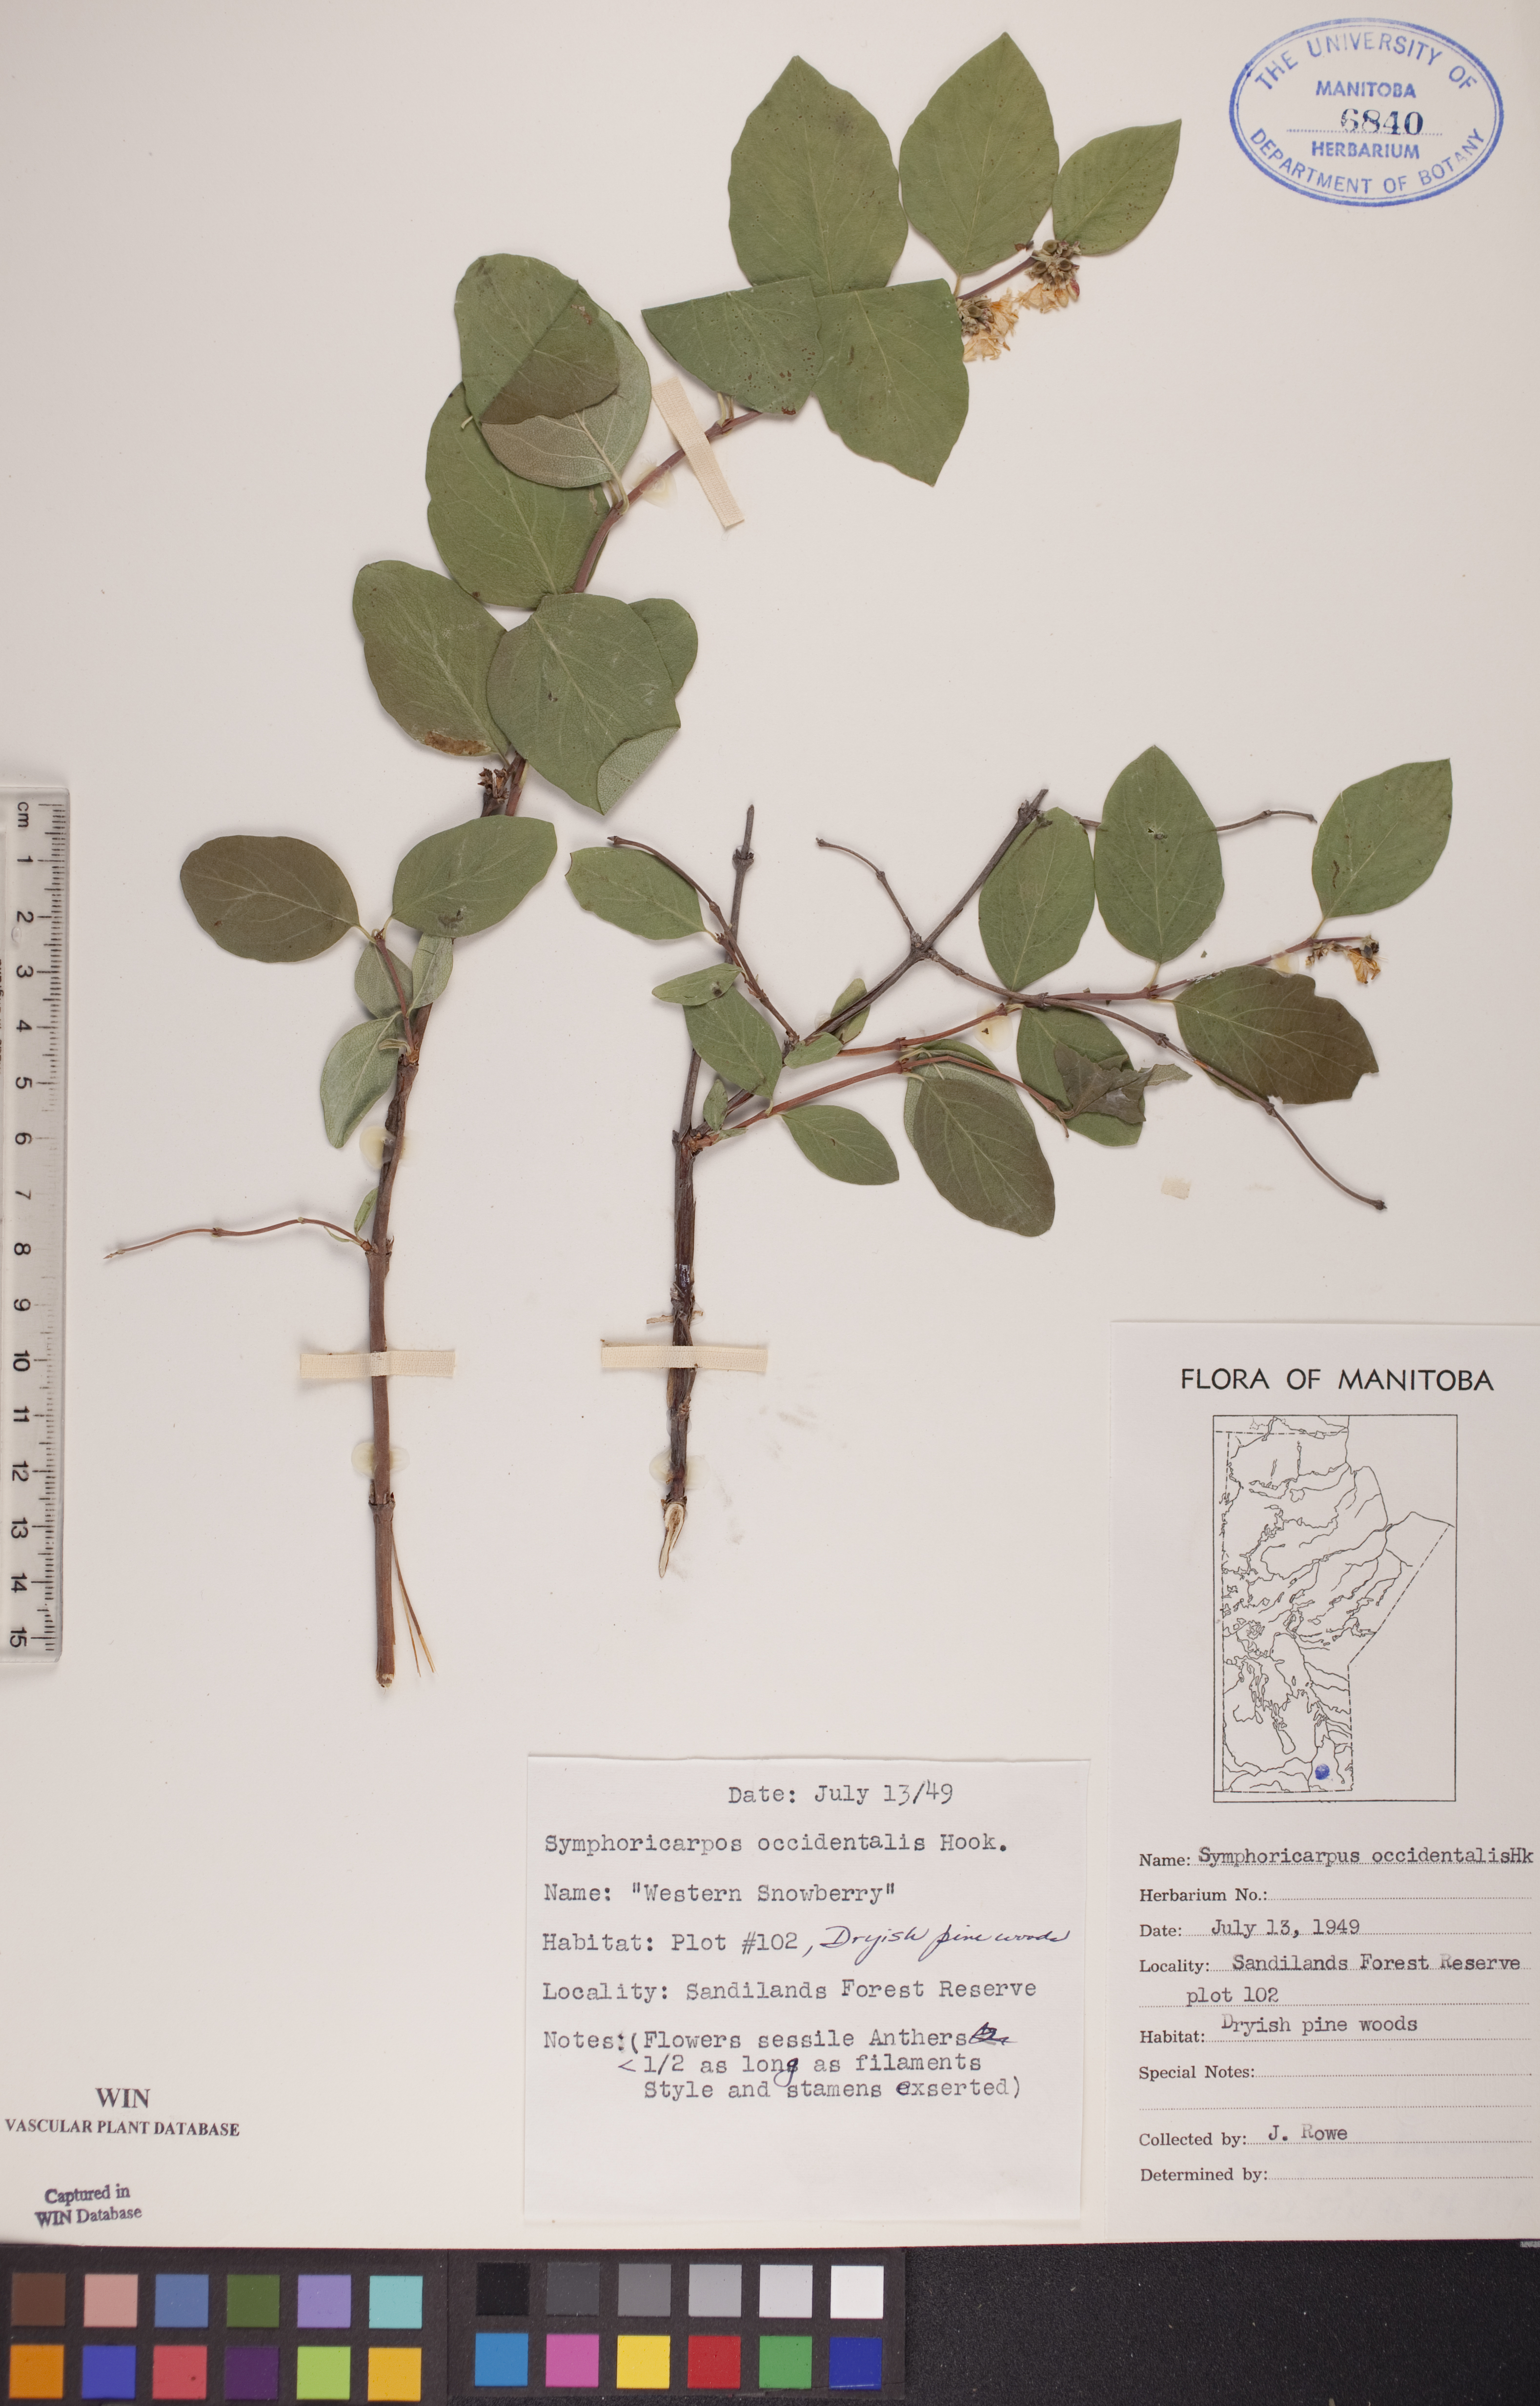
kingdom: Plantae
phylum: Tracheophyta
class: Magnoliopsida
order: Dipsacales
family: Caprifoliaceae
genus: Symphoricarpos
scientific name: Symphoricarpos occidentalis
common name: Wolfberry
